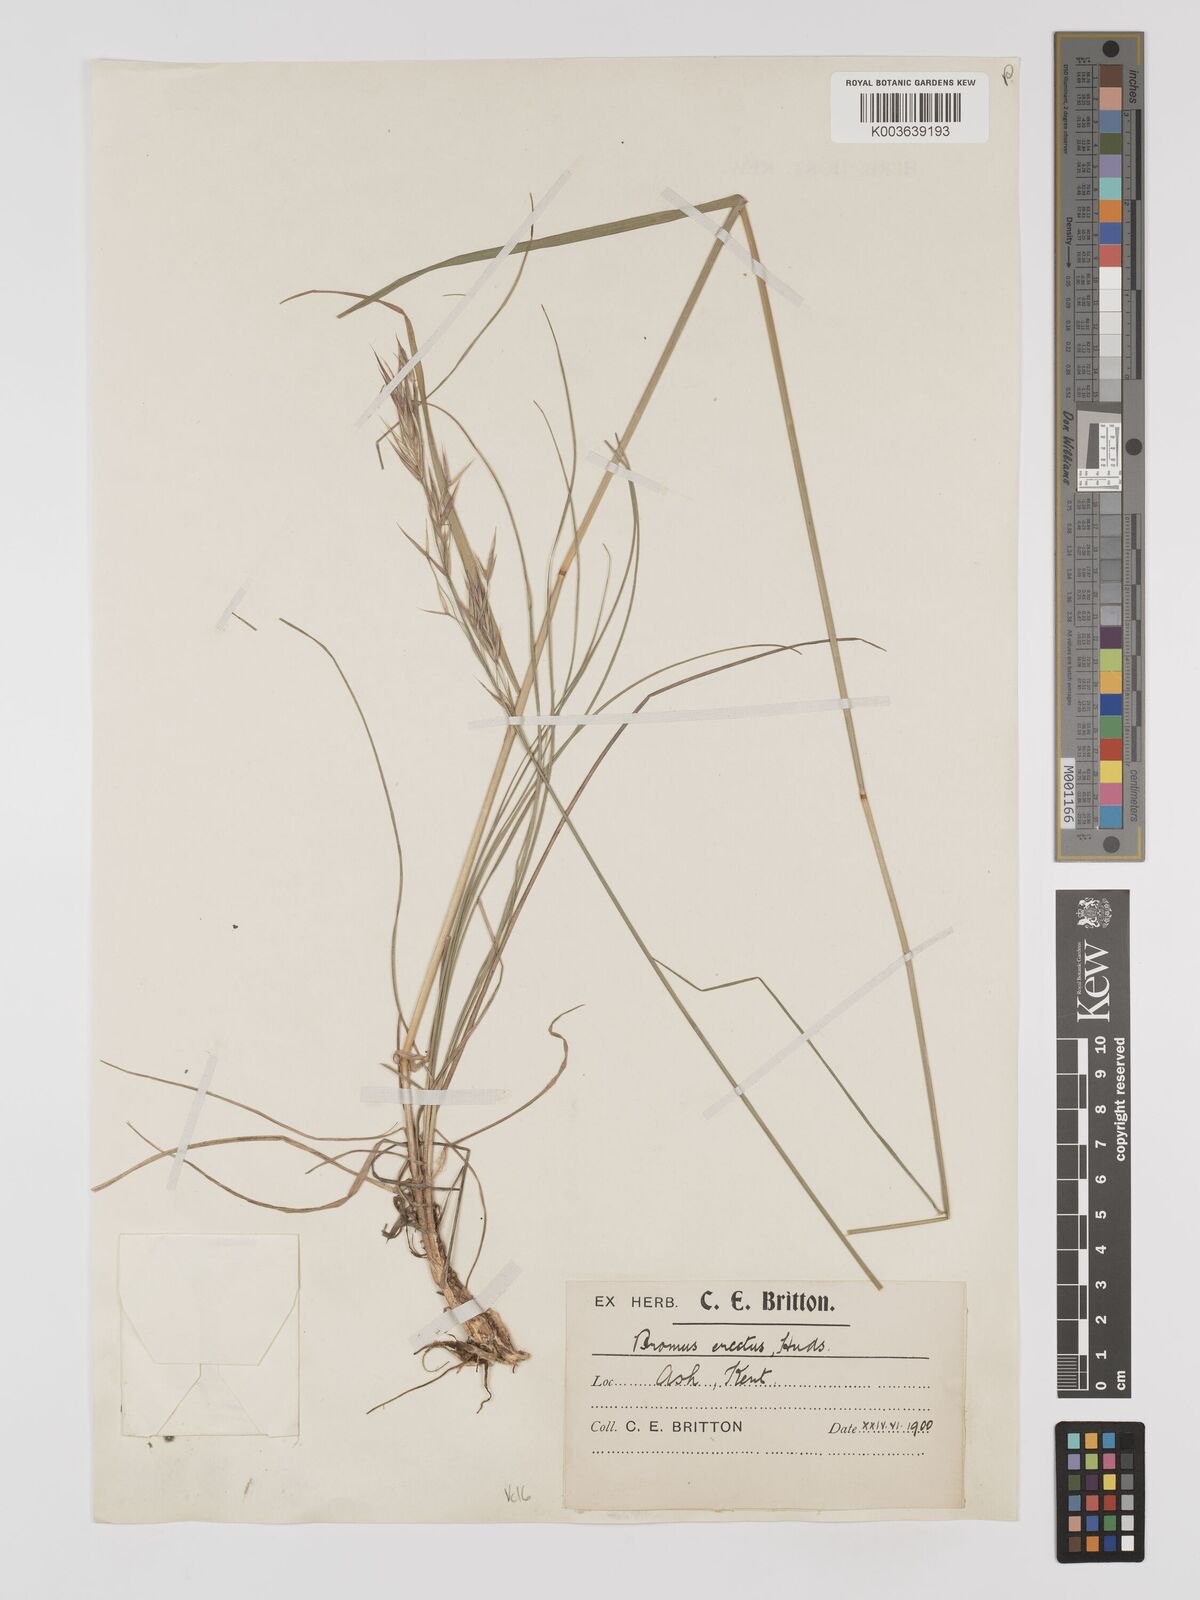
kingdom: Plantae
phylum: Tracheophyta
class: Liliopsida
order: Poales
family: Poaceae
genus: Bromus
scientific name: Bromus erectus
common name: Erect brome
